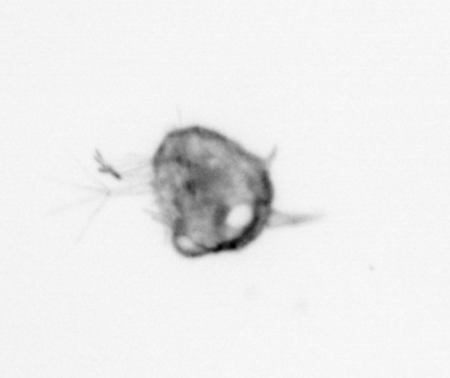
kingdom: Animalia
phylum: Arthropoda
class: Malacostraca
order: Decapoda
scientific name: Decapoda
